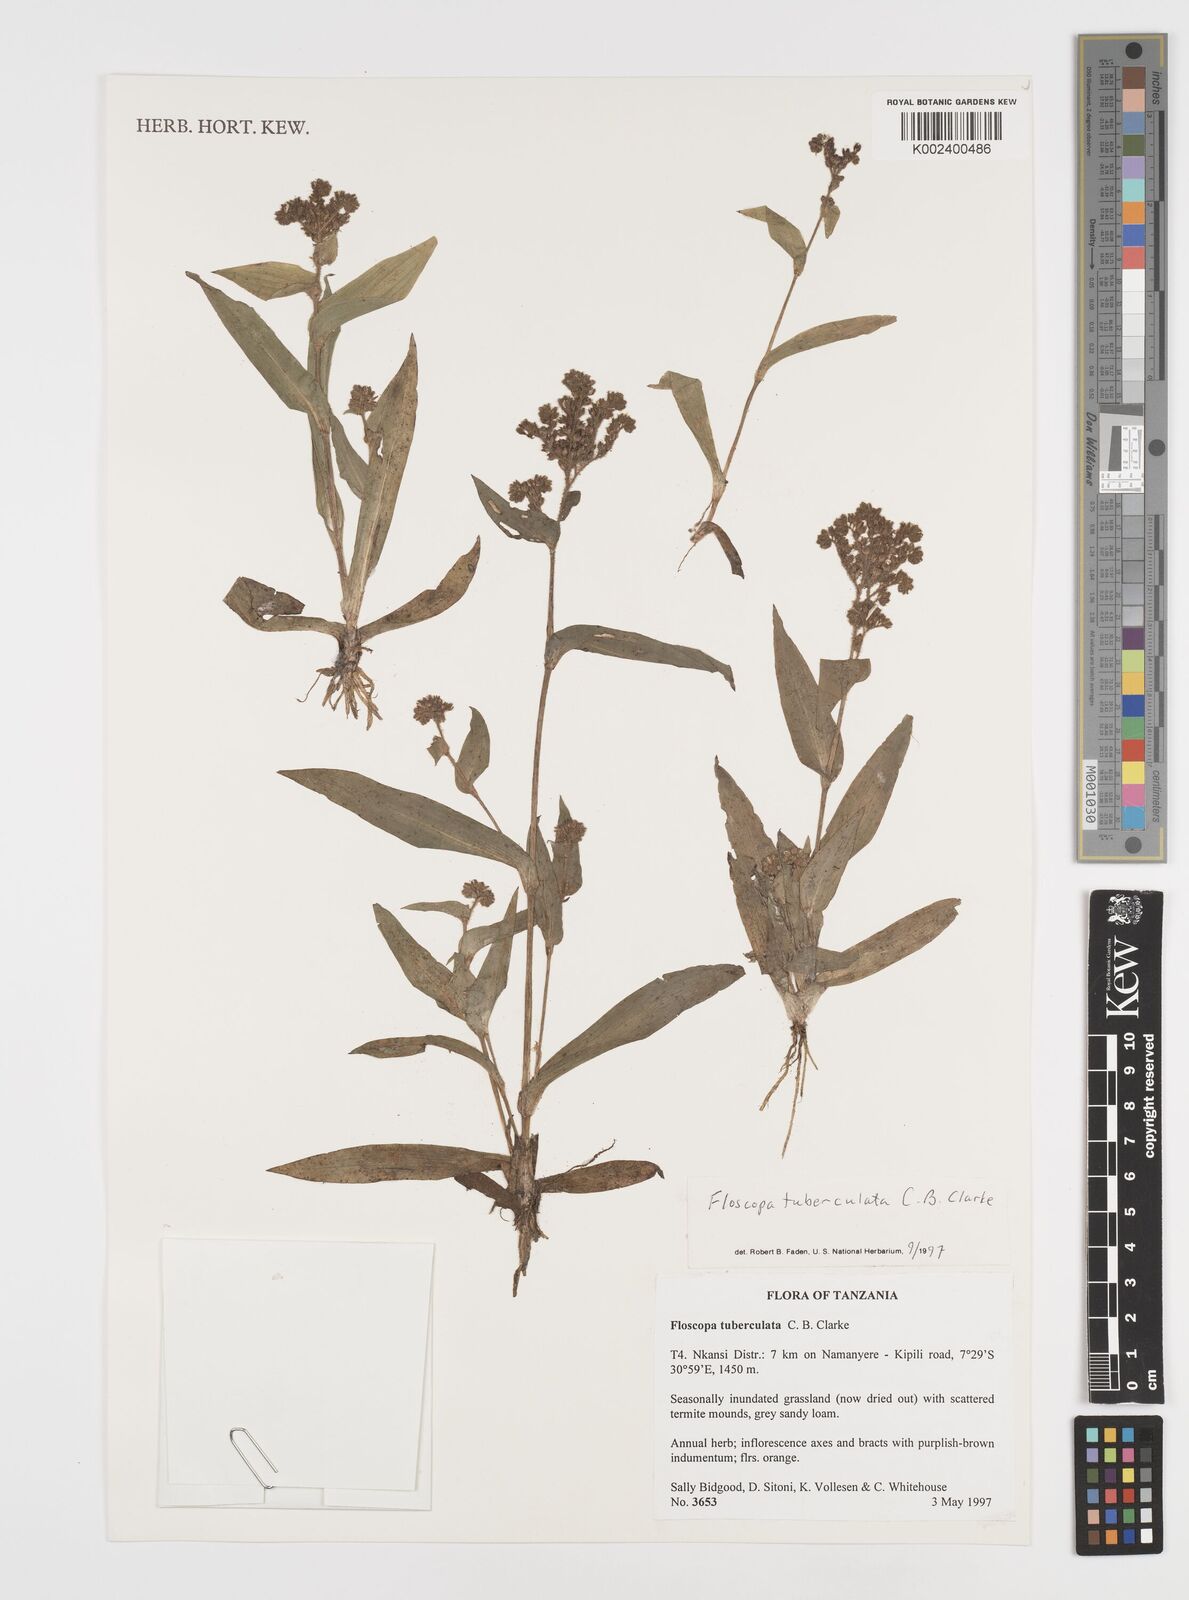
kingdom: Plantae
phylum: Tracheophyta
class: Liliopsida
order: Commelinales
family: Commelinaceae
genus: Floscopa
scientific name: Floscopa tuberculata
